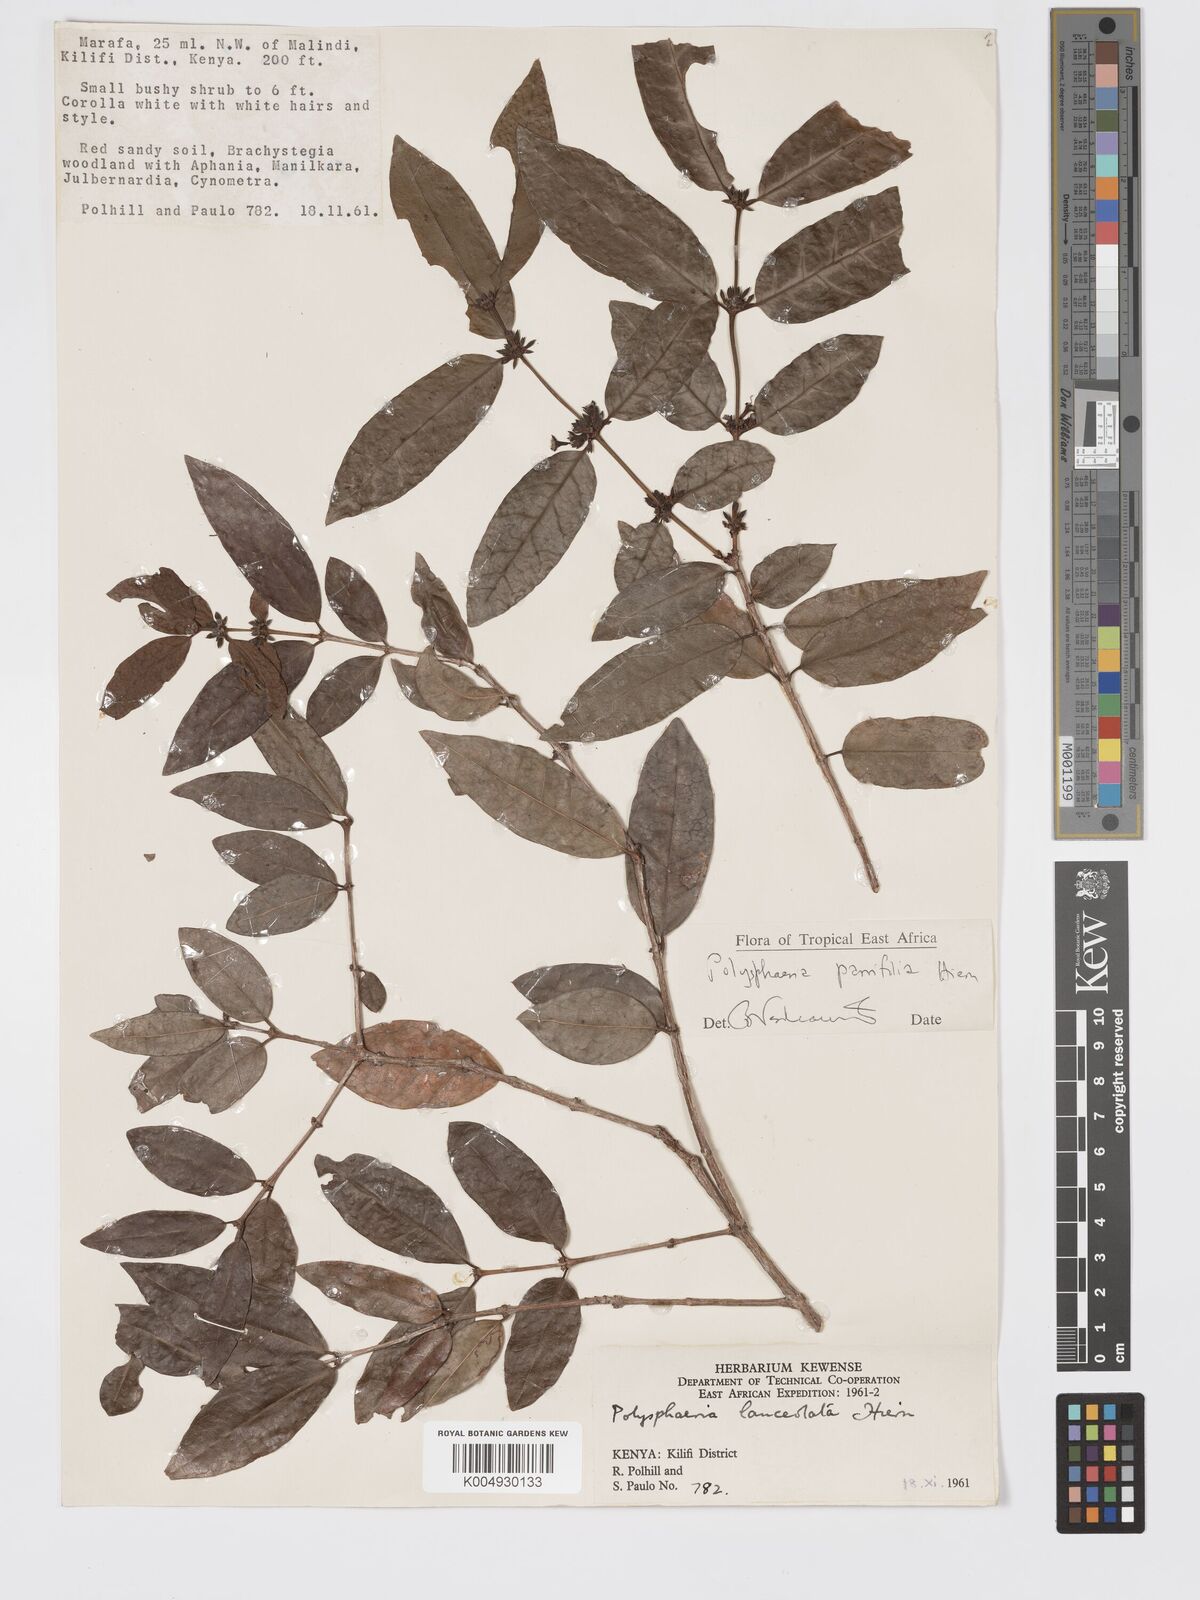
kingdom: Plantae
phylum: Tracheophyta
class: Magnoliopsida
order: Gentianales
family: Rubiaceae
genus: Polysphaeria
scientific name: Polysphaeria parvifolia
